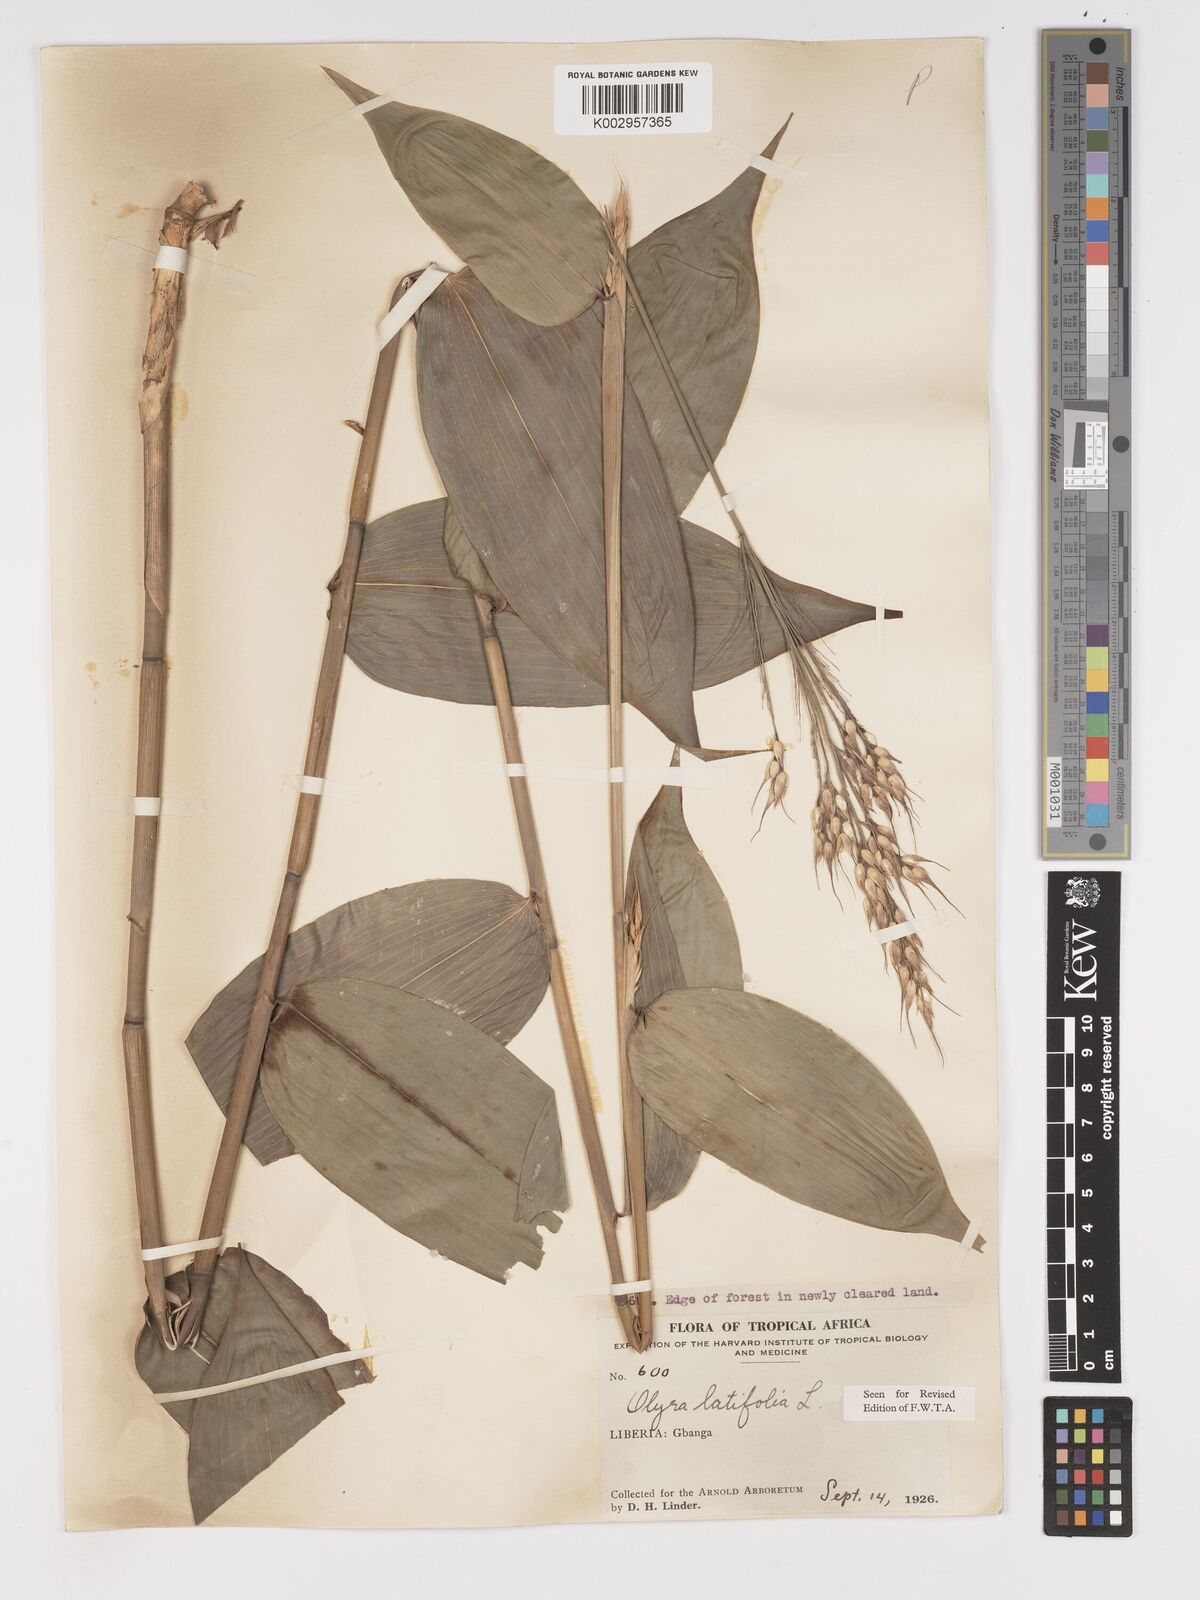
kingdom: Plantae
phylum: Tracheophyta
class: Liliopsida
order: Poales
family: Poaceae
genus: Olyra
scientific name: Olyra latifolia
